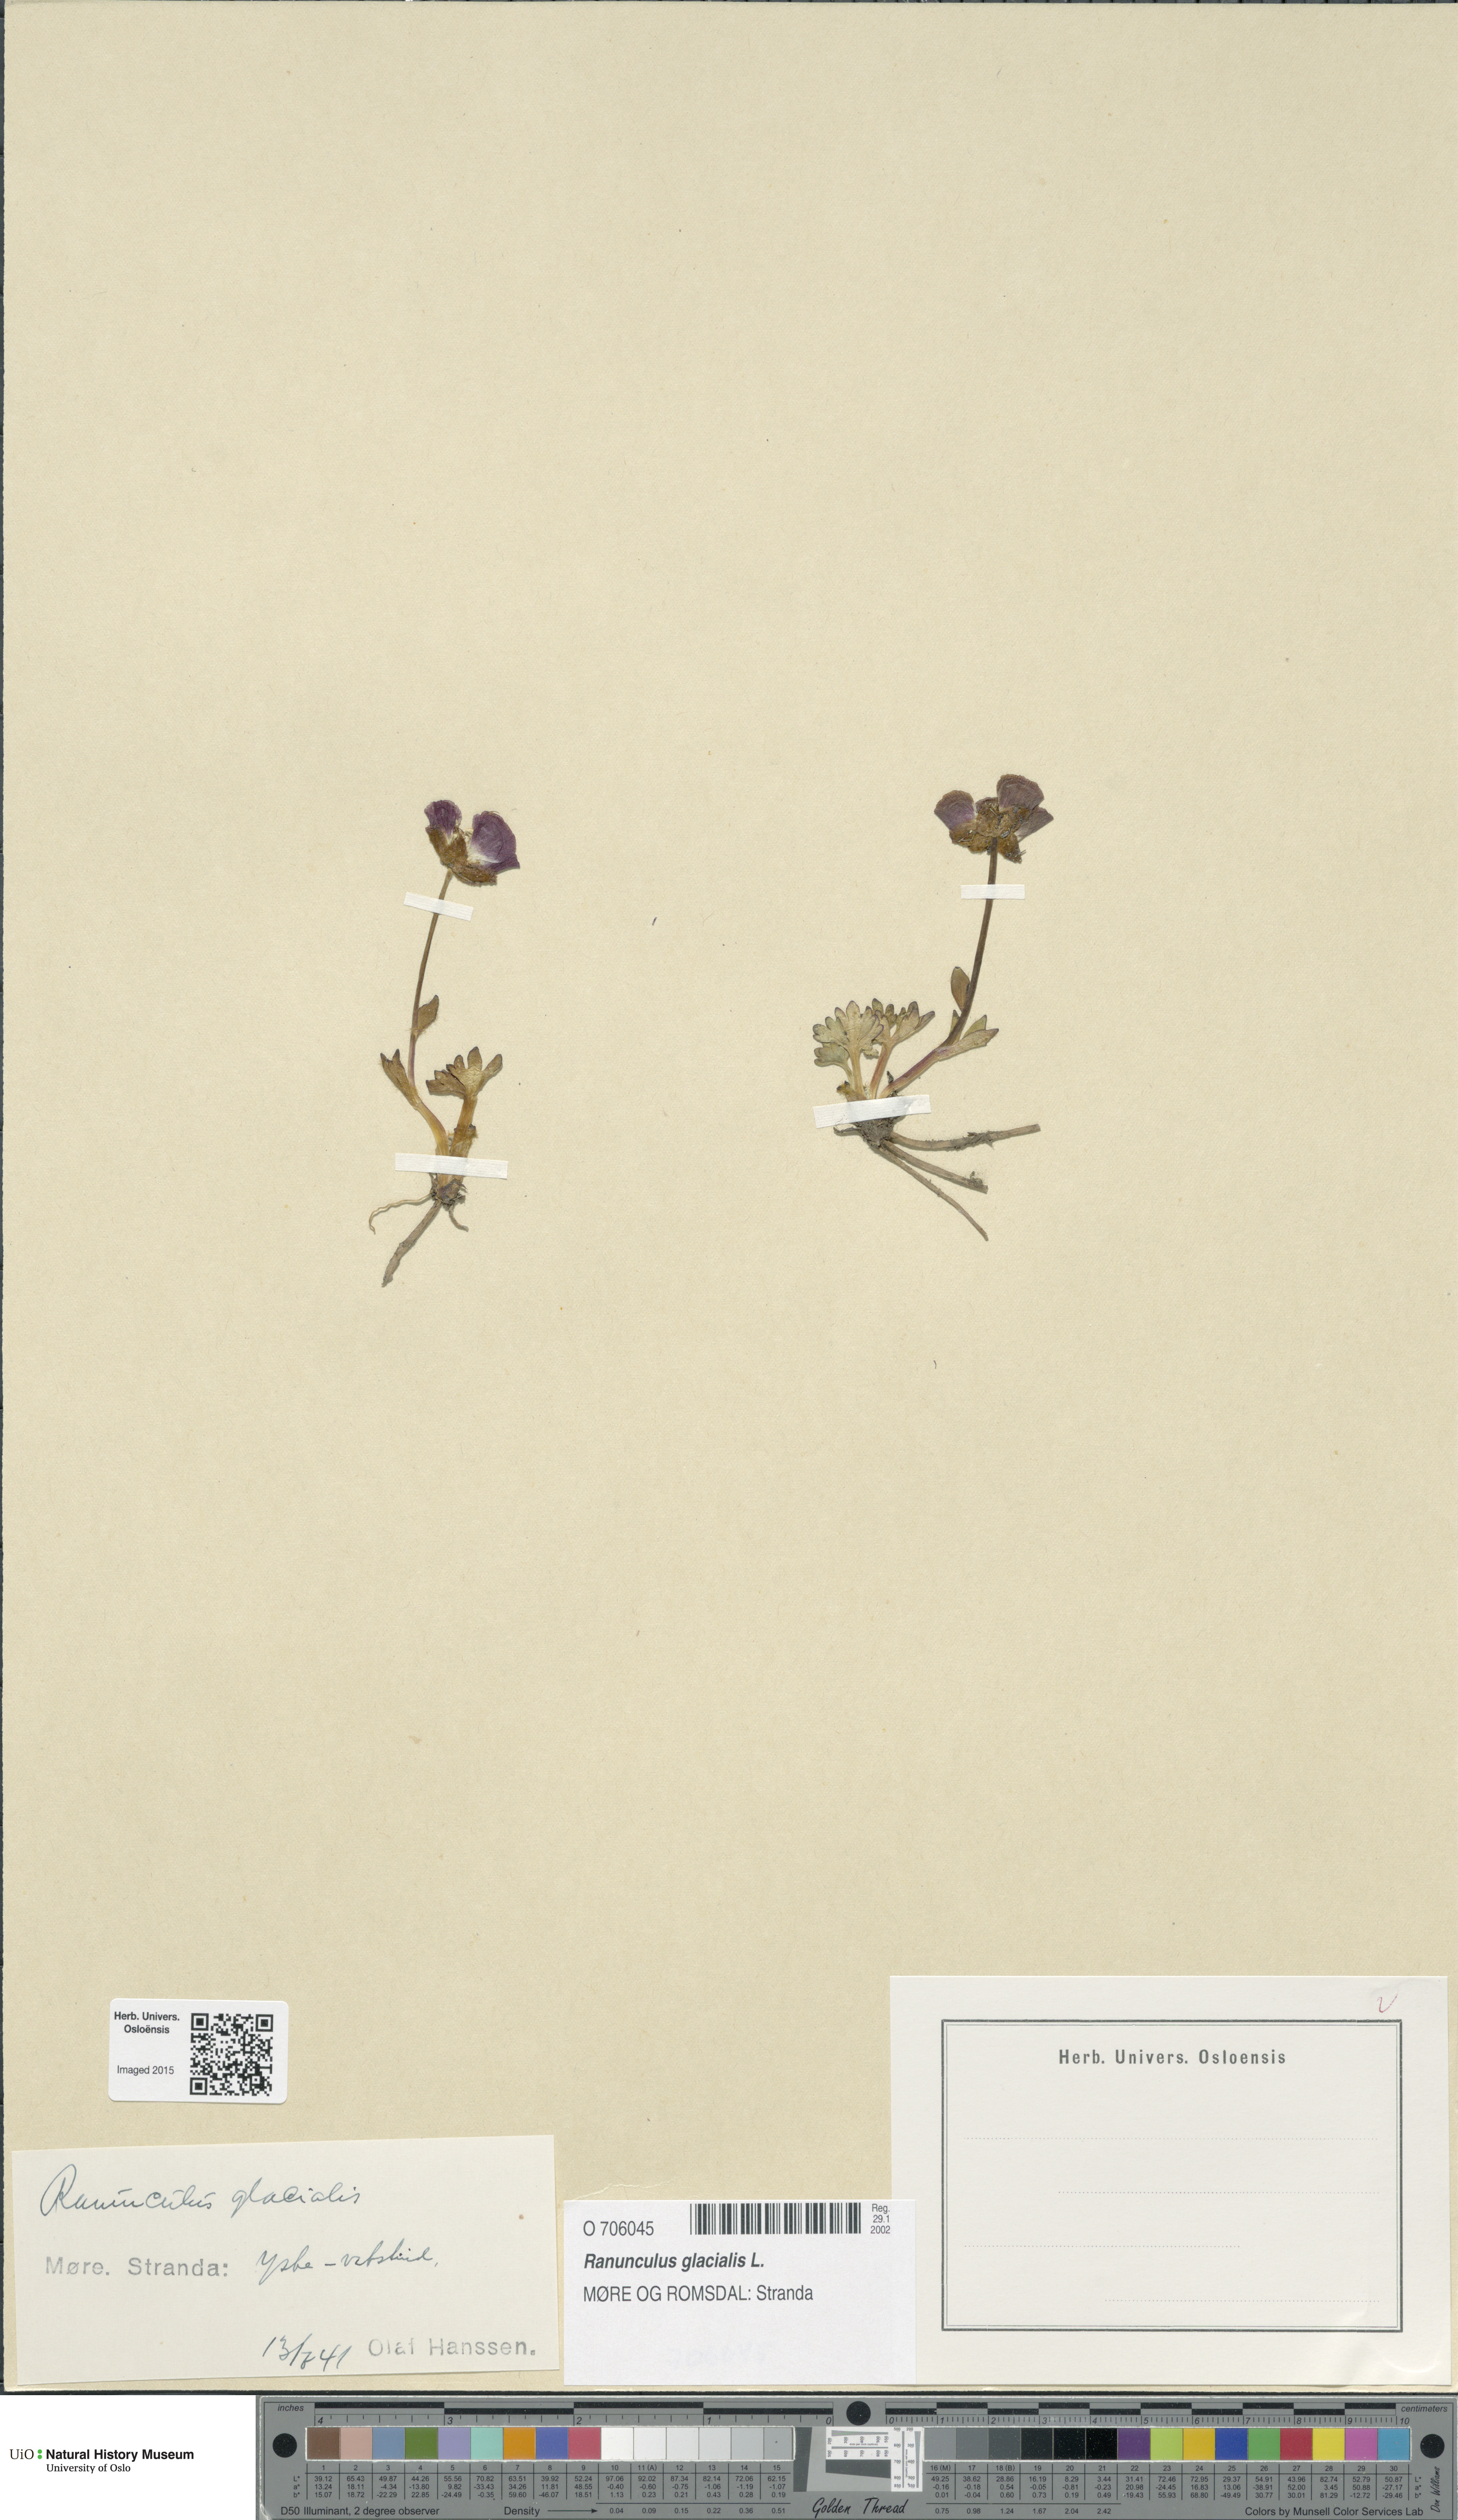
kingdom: Plantae
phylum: Tracheophyta
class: Magnoliopsida
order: Ranunculales
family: Ranunculaceae
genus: Ranunculus
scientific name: Ranunculus glacialis
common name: Glacier buttercup
